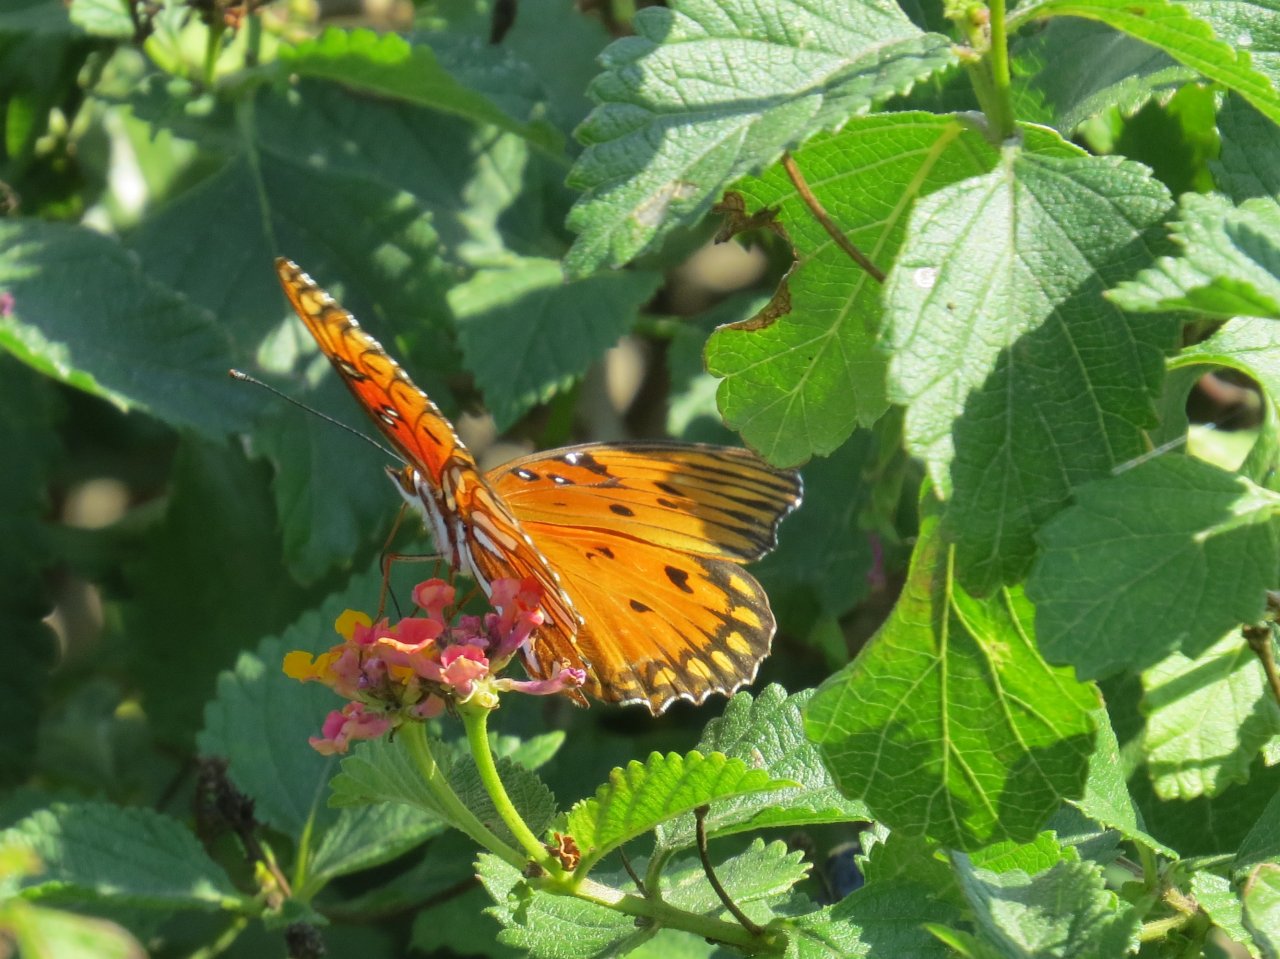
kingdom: Animalia
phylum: Arthropoda
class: Insecta
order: Lepidoptera
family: Nymphalidae
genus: Dione
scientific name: Dione vanillae
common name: Gulf Fritillary
